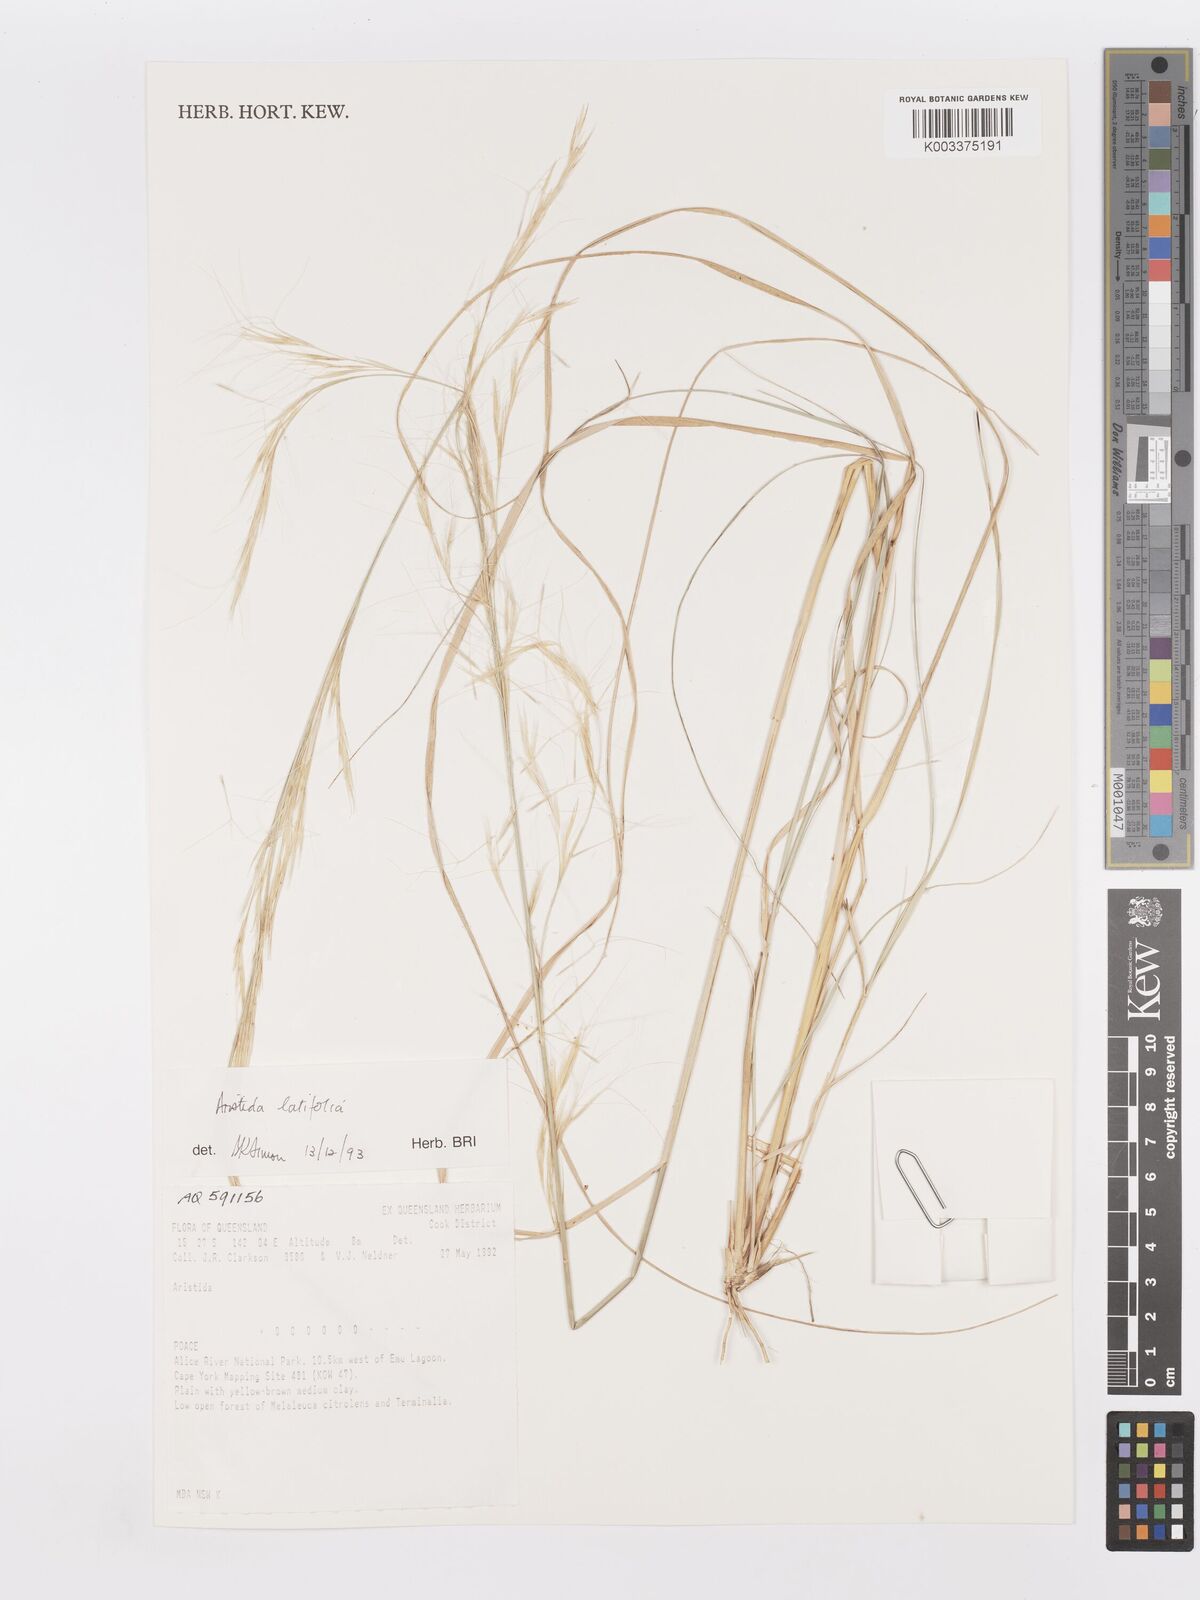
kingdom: Plantae
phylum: Tracheophyta
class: Liliopsida
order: Poales
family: Poaceae
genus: Aristida
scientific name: Aristida latifolia
